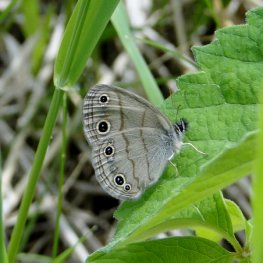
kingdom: Animalia
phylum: Arthropoda
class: Insecta
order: Lepidoptera
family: Nymphalidae
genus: Euptychia
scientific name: Euptychia cymela
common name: Little Wood Satyr
